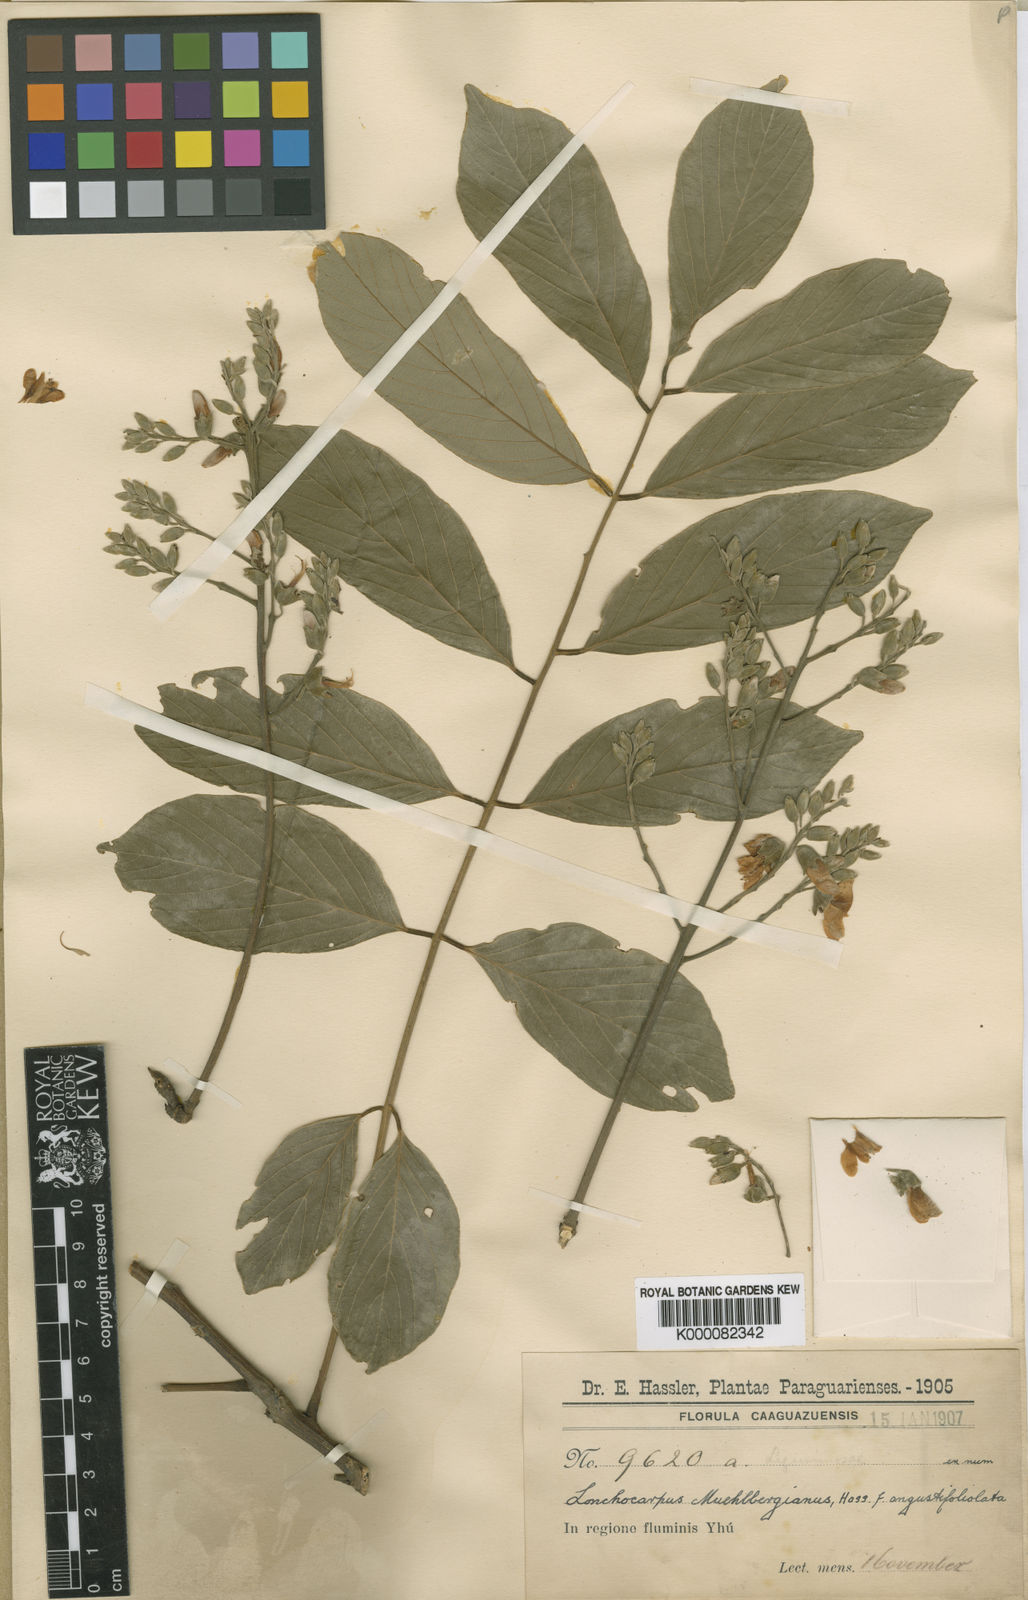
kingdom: Plantae
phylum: Tracheophyta
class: Magnoliopsida
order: Fabales
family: Fabaceae
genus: Dahlstedtia
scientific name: Dahlstedtia muehlbergiana
